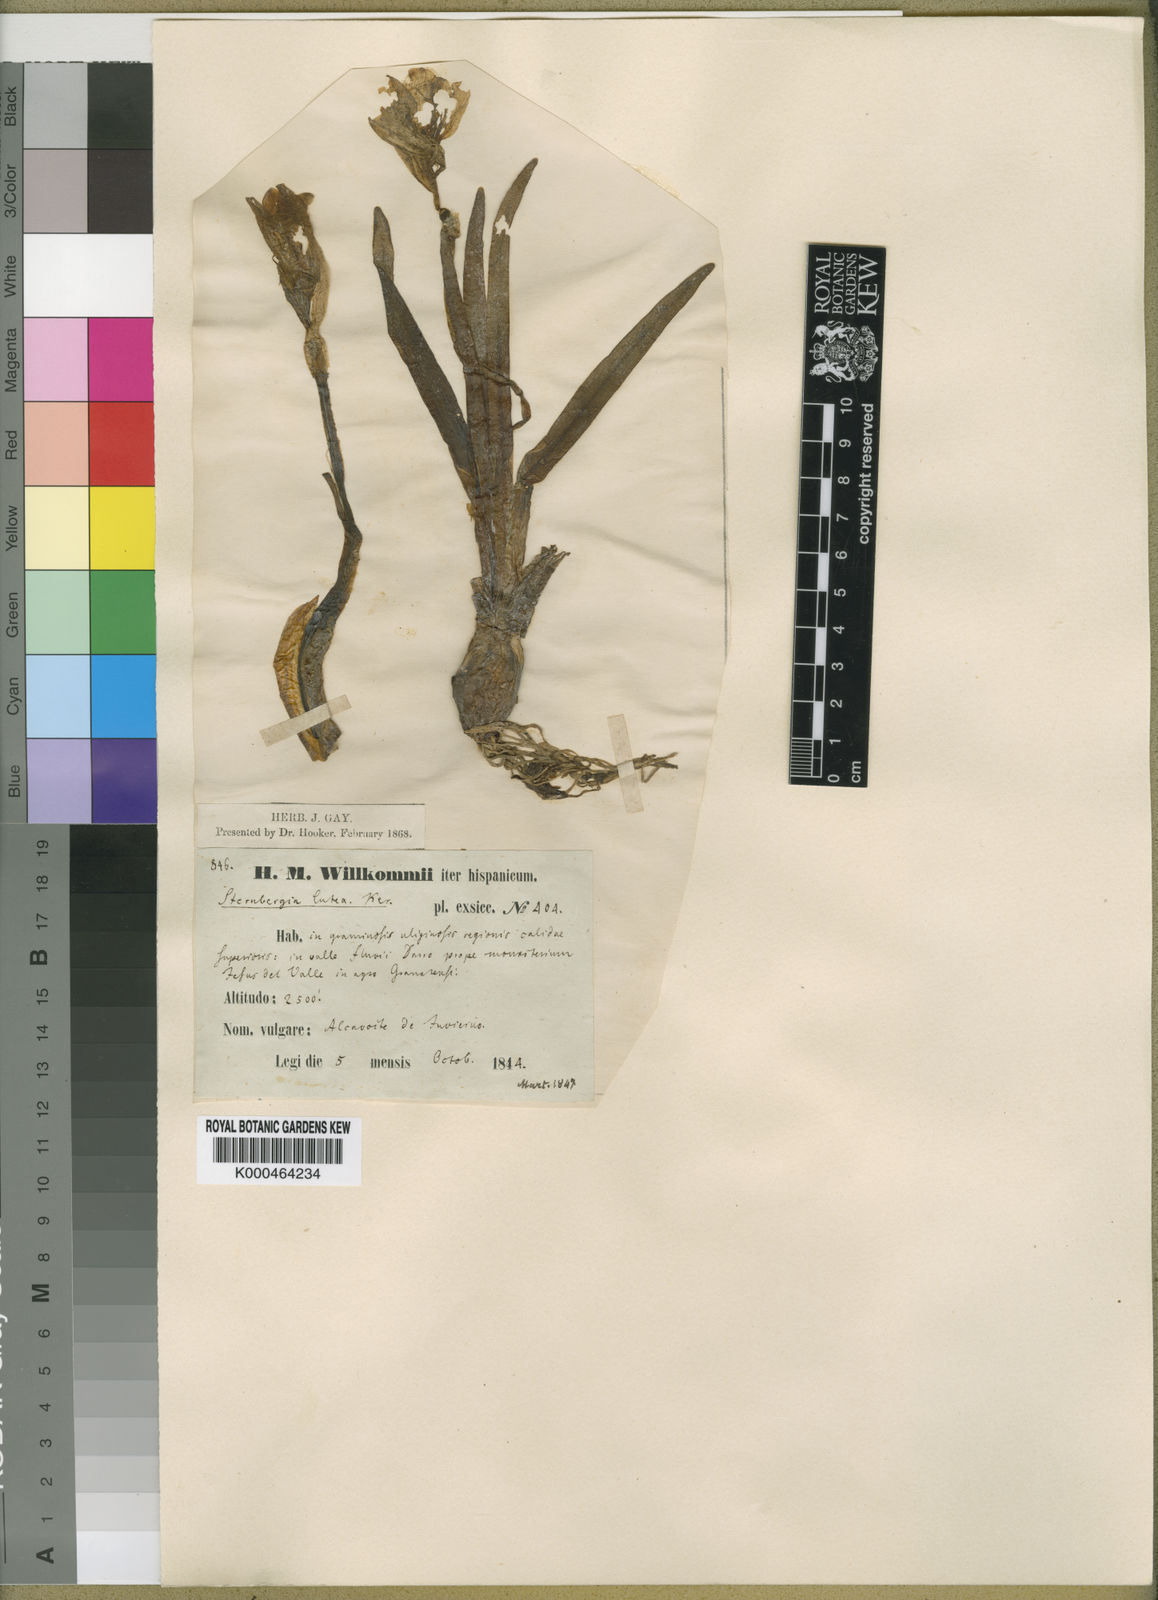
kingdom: Plantae
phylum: Tracheophyta
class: Liliopsida
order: Asparagales
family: Amaryllidaceae
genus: Sternbergia
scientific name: Sternbergia
